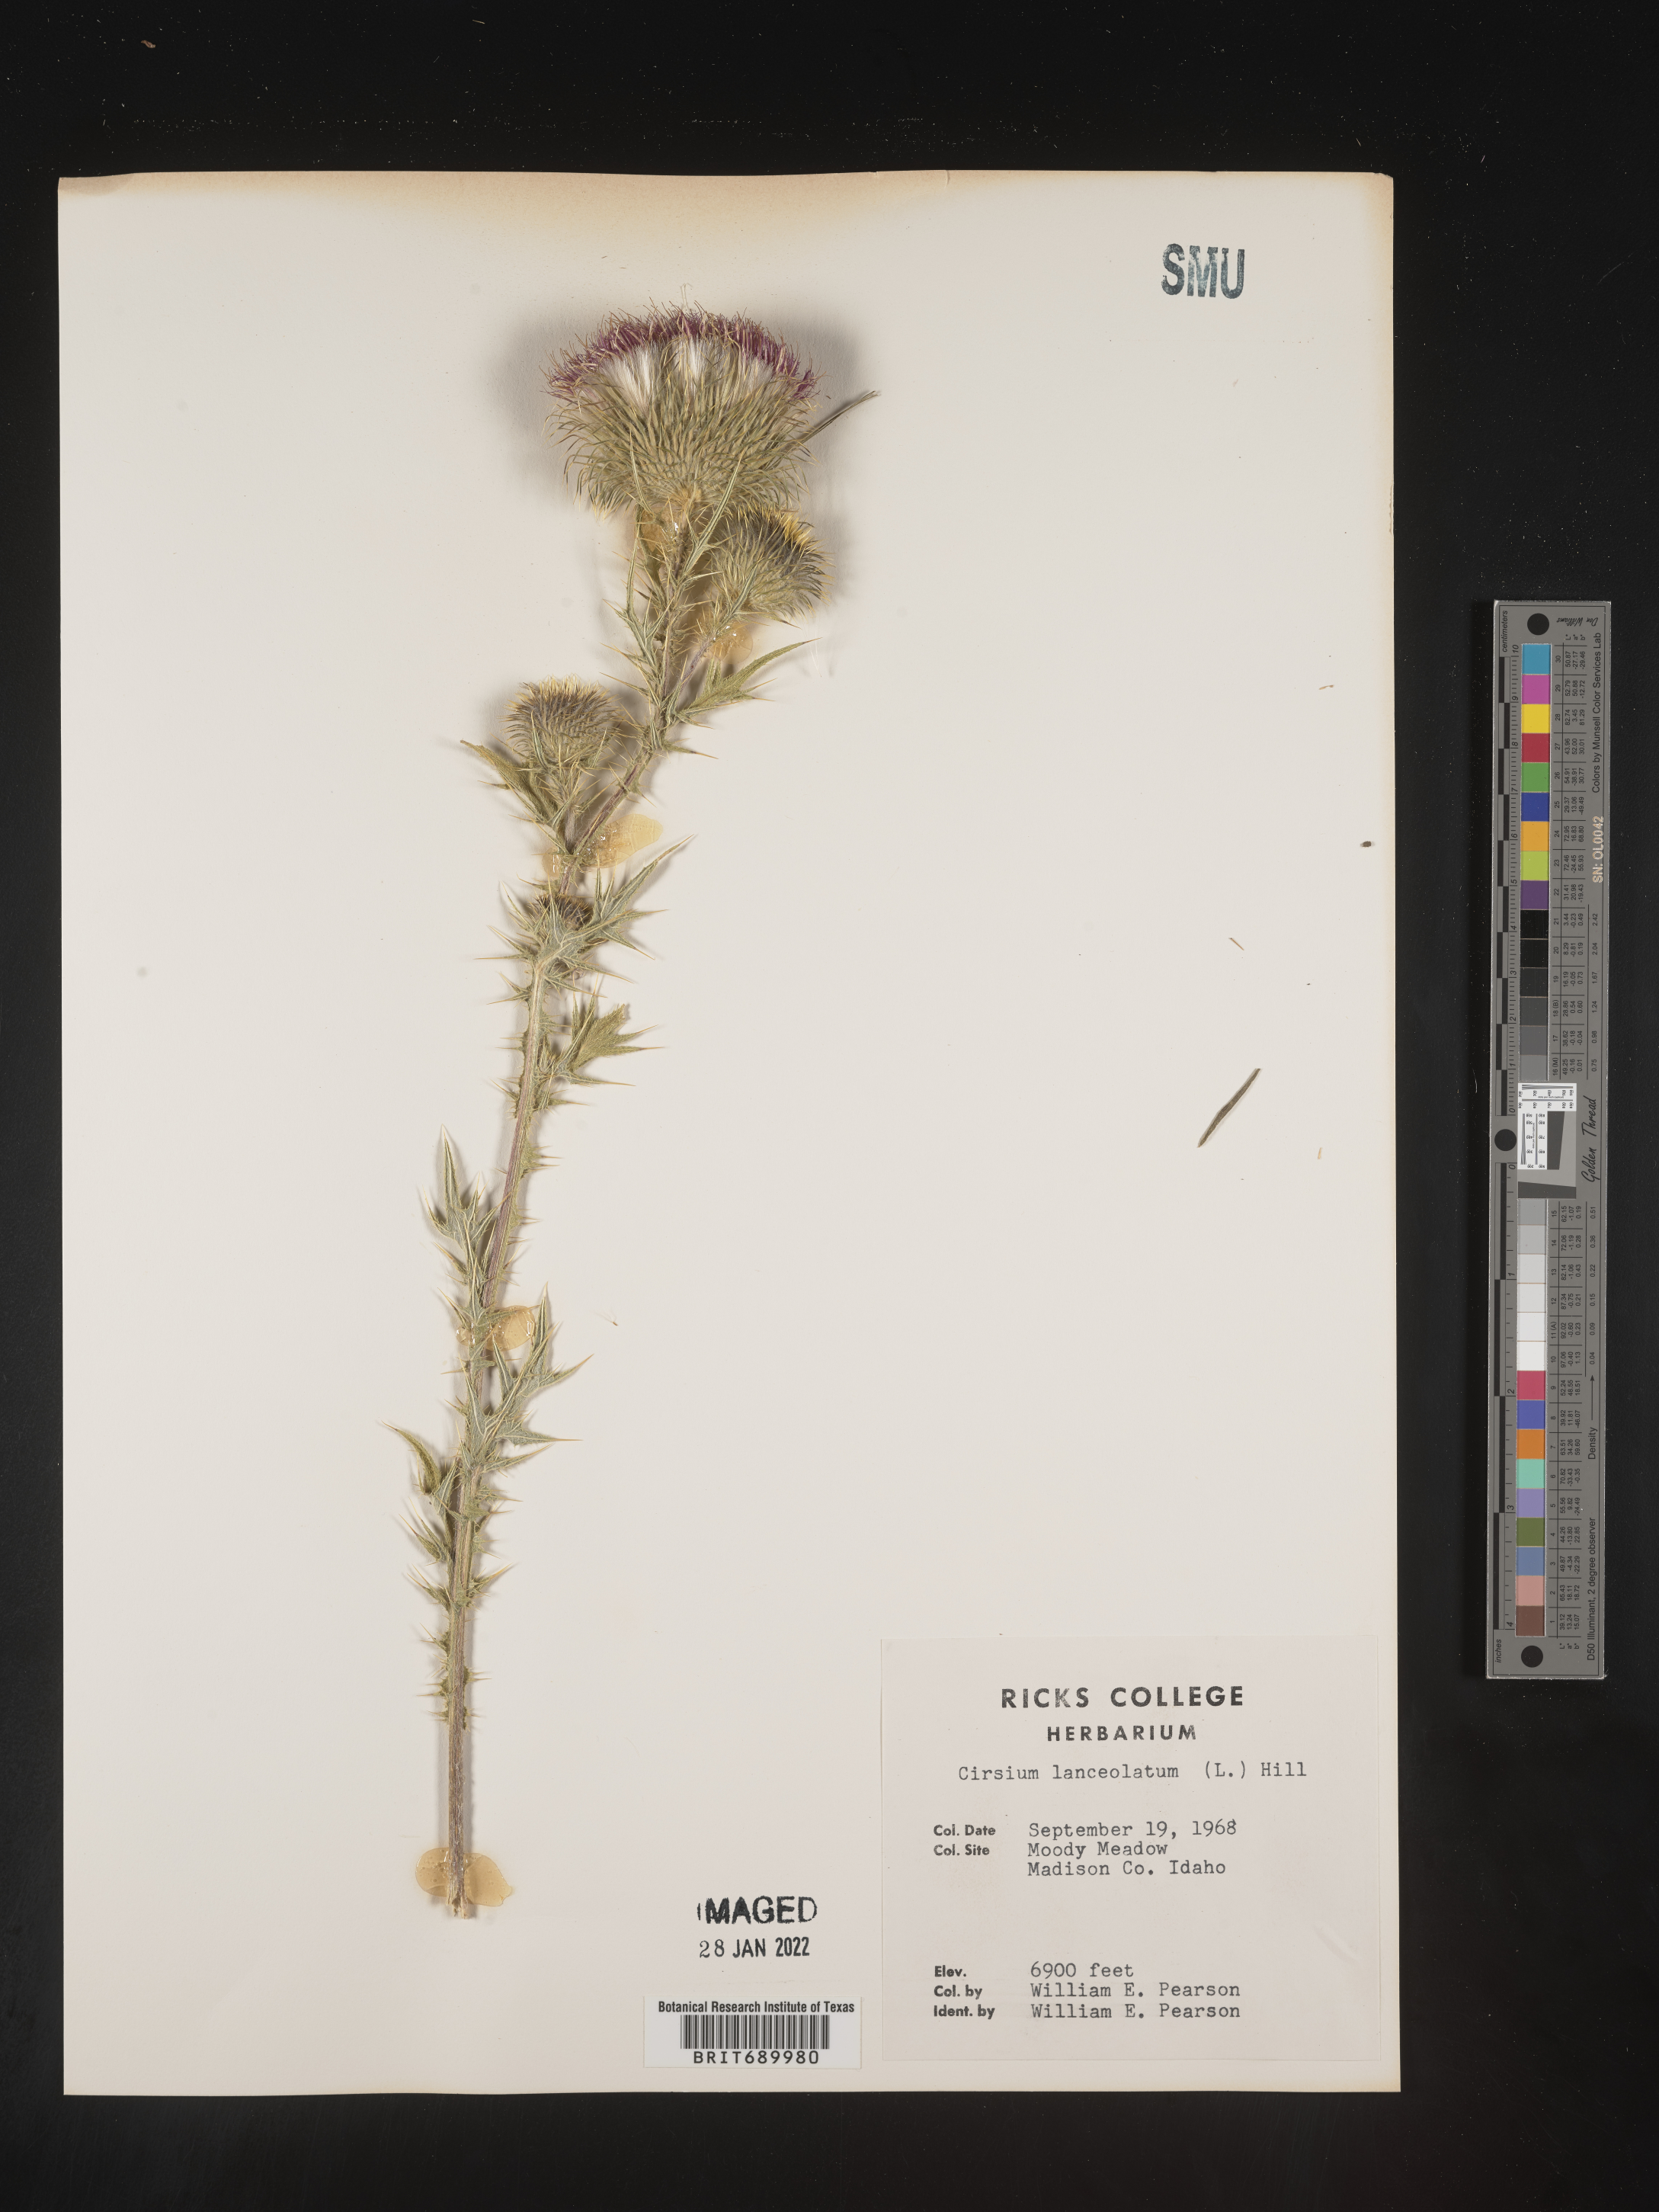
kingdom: Plantae
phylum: Tracheophyta
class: Magnoliopsida
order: Asterales
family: Asteraceae
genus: Cirsium
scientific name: Cirsium vulgare
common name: Bull thistle
